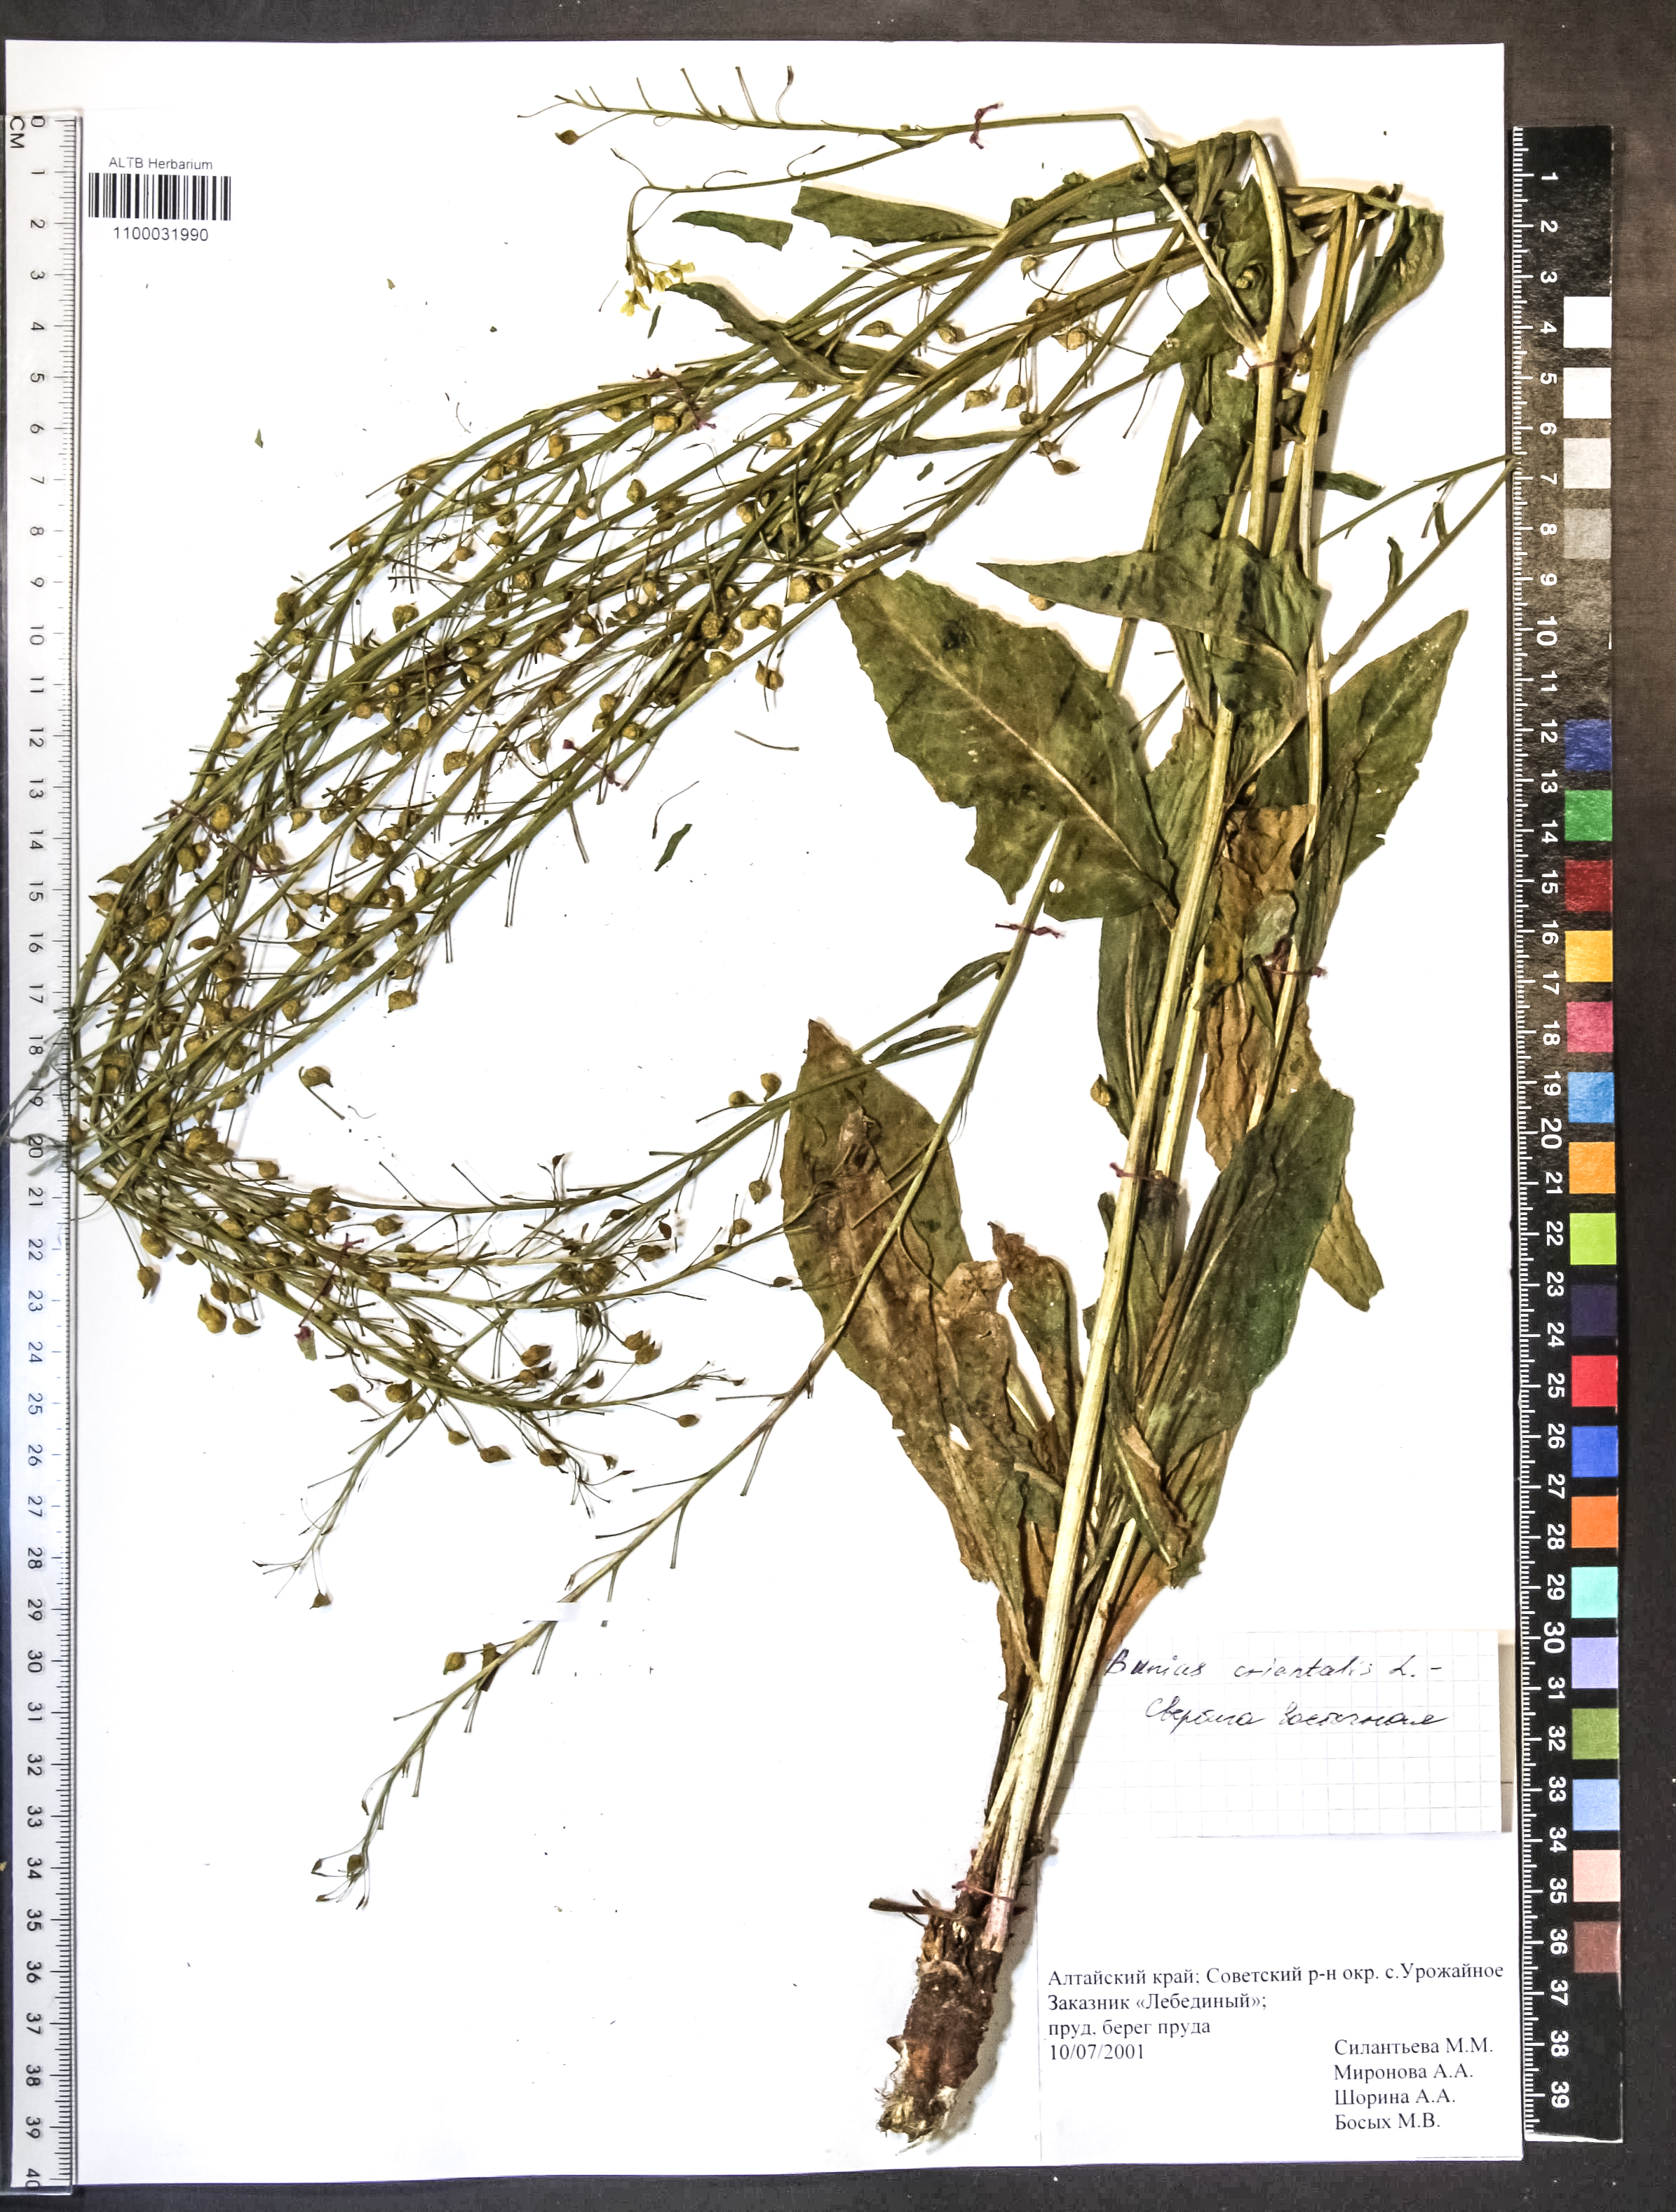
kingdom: Plantae
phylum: Tracheophyta
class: Magnoliopsida
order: Brassicales
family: Brassicaceae
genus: Bunias
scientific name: Bunias orientalis
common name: Warty-cabbage
